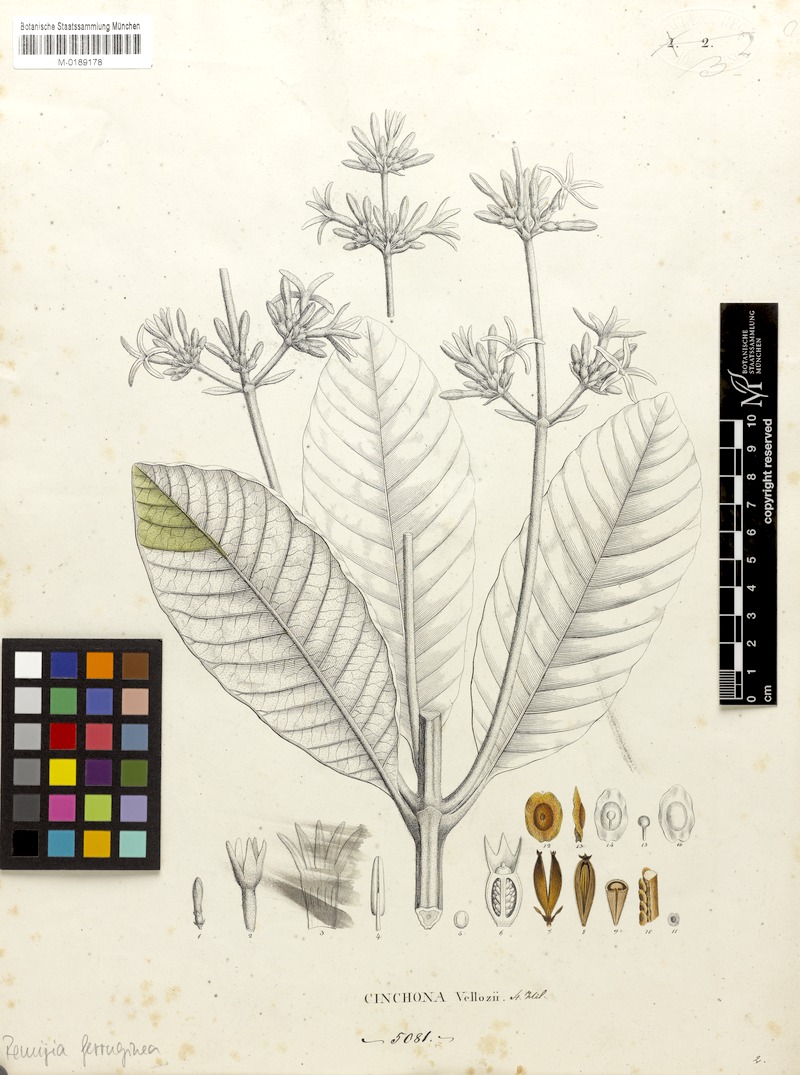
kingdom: Plantae
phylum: Tracheophyta
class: Magnoliopsida
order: Gentianales
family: Rubiaceae
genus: Remijia
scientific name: Remijia ferruginea
